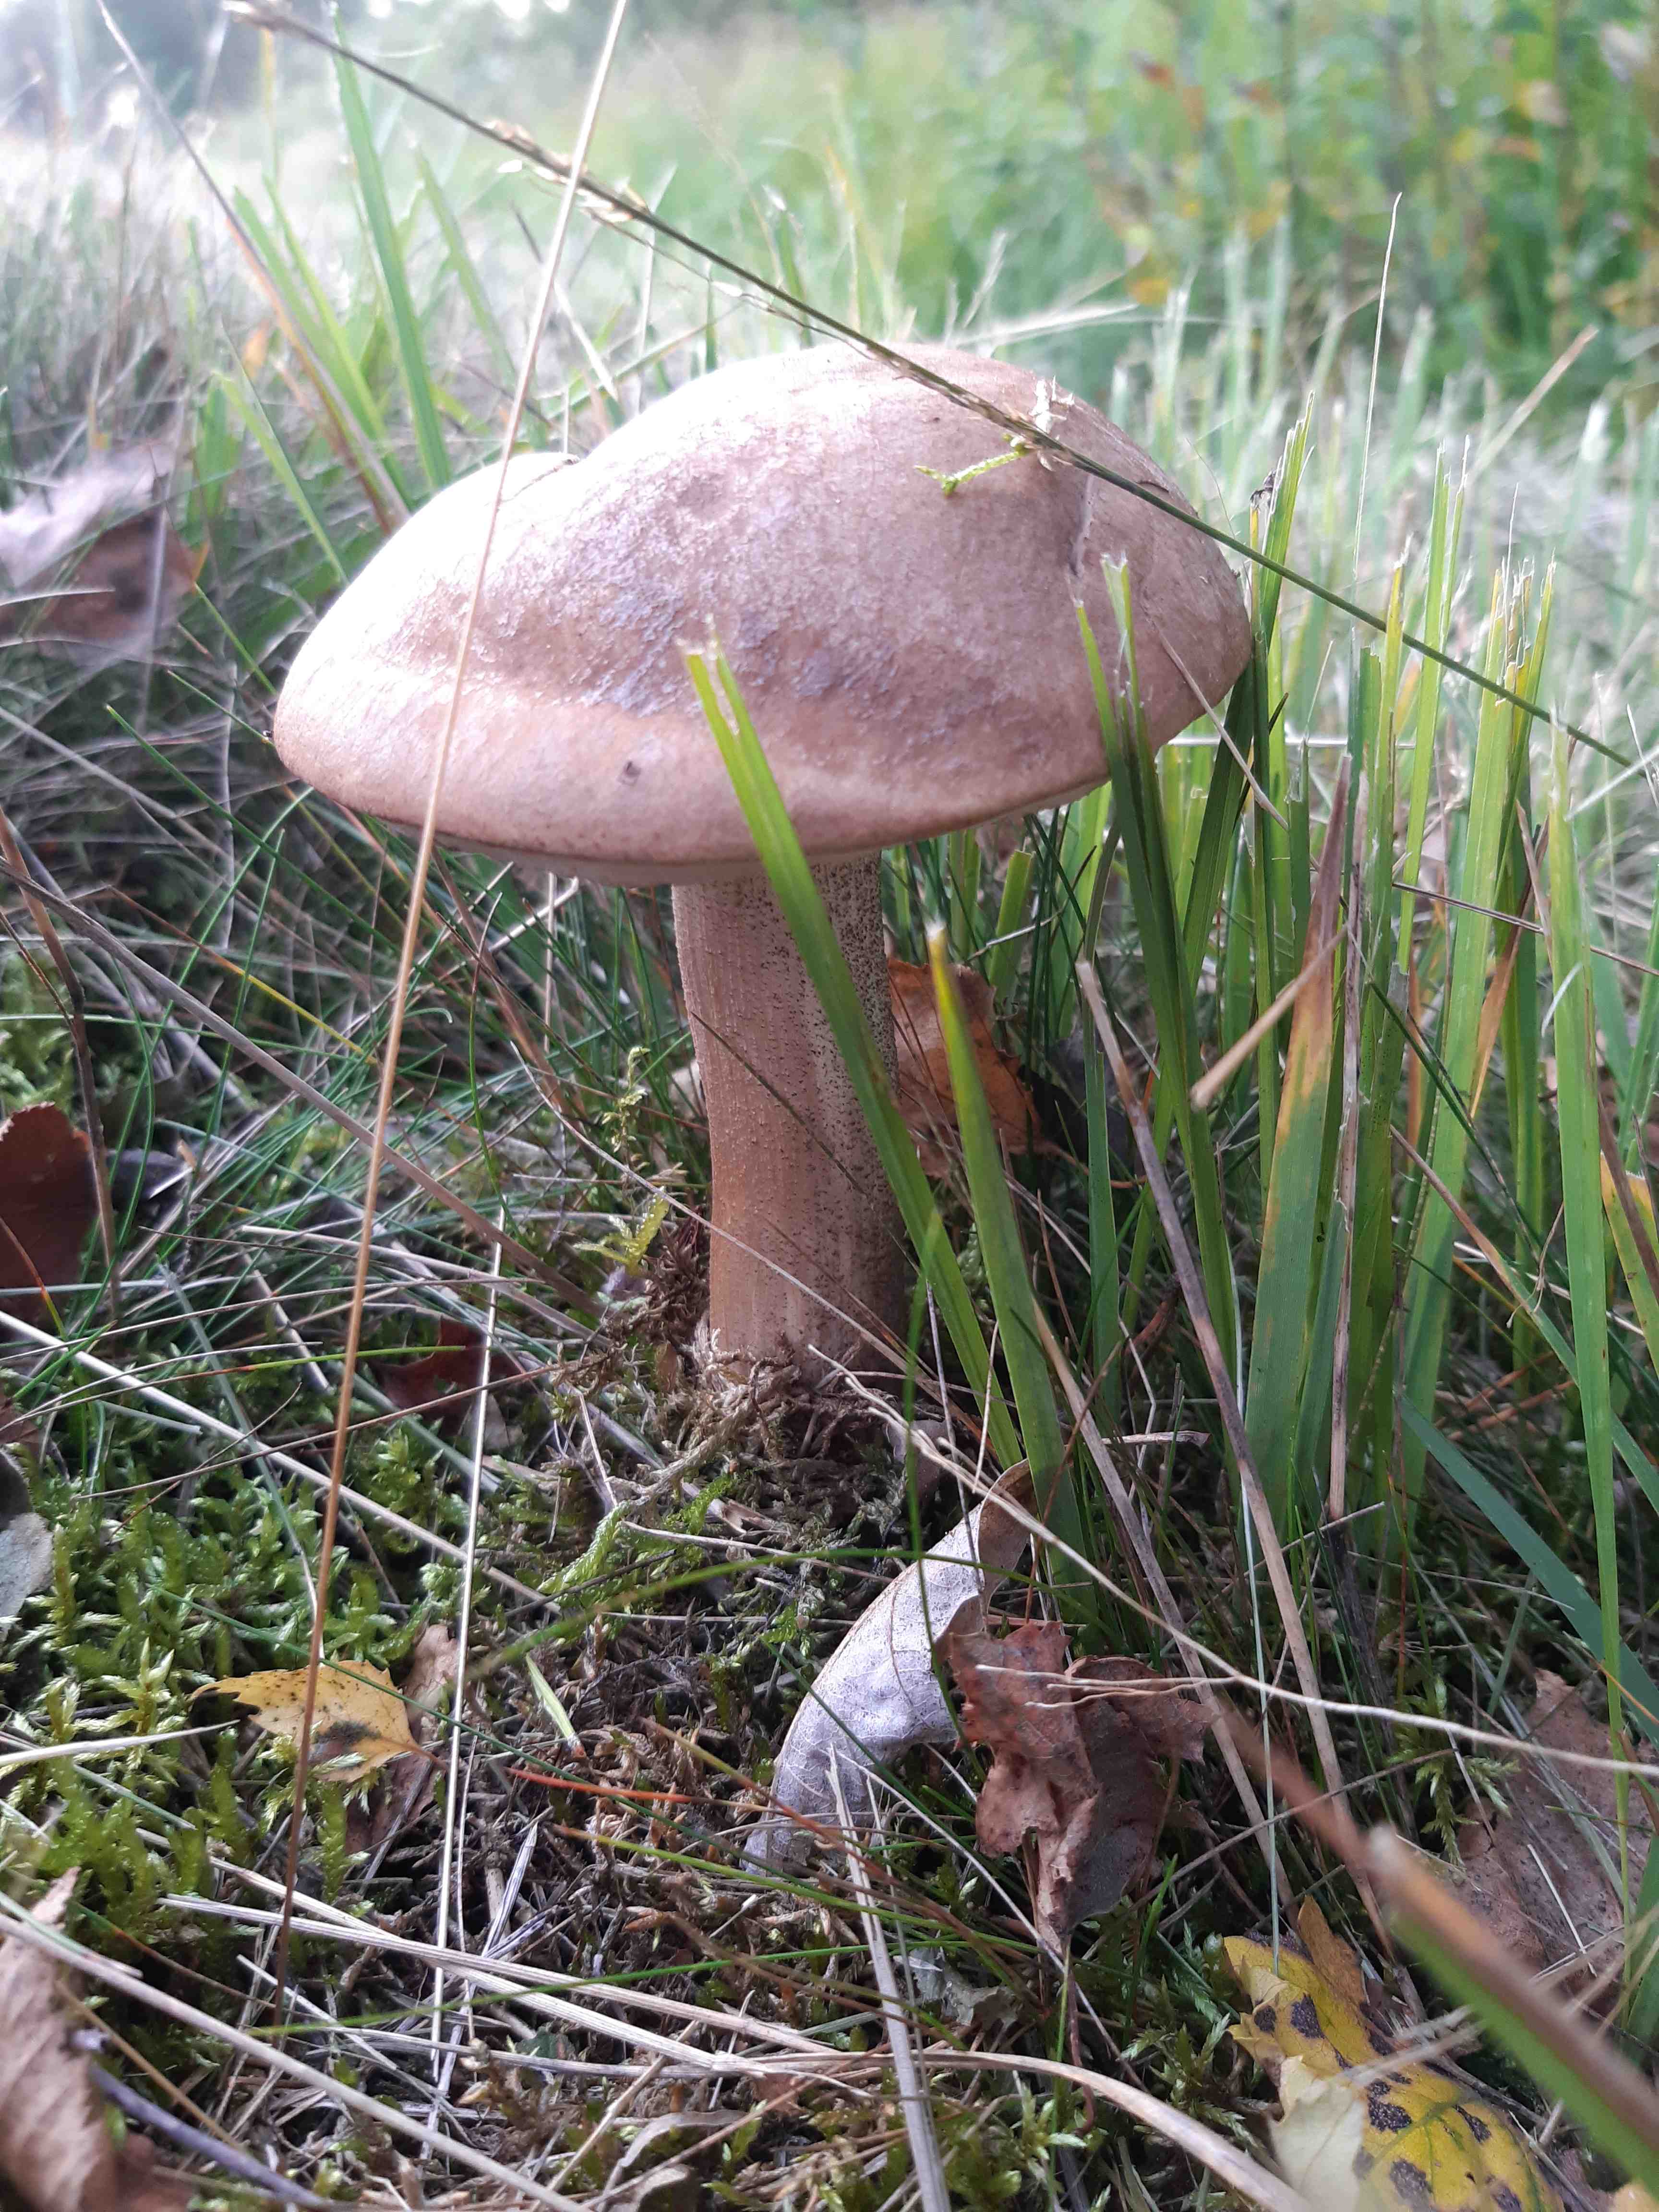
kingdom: Fungi
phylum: Basidiomycota
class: Agaricomycetes
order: Boletales
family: Boletaceae
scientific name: Boletaceae
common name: rørhatfamilien
